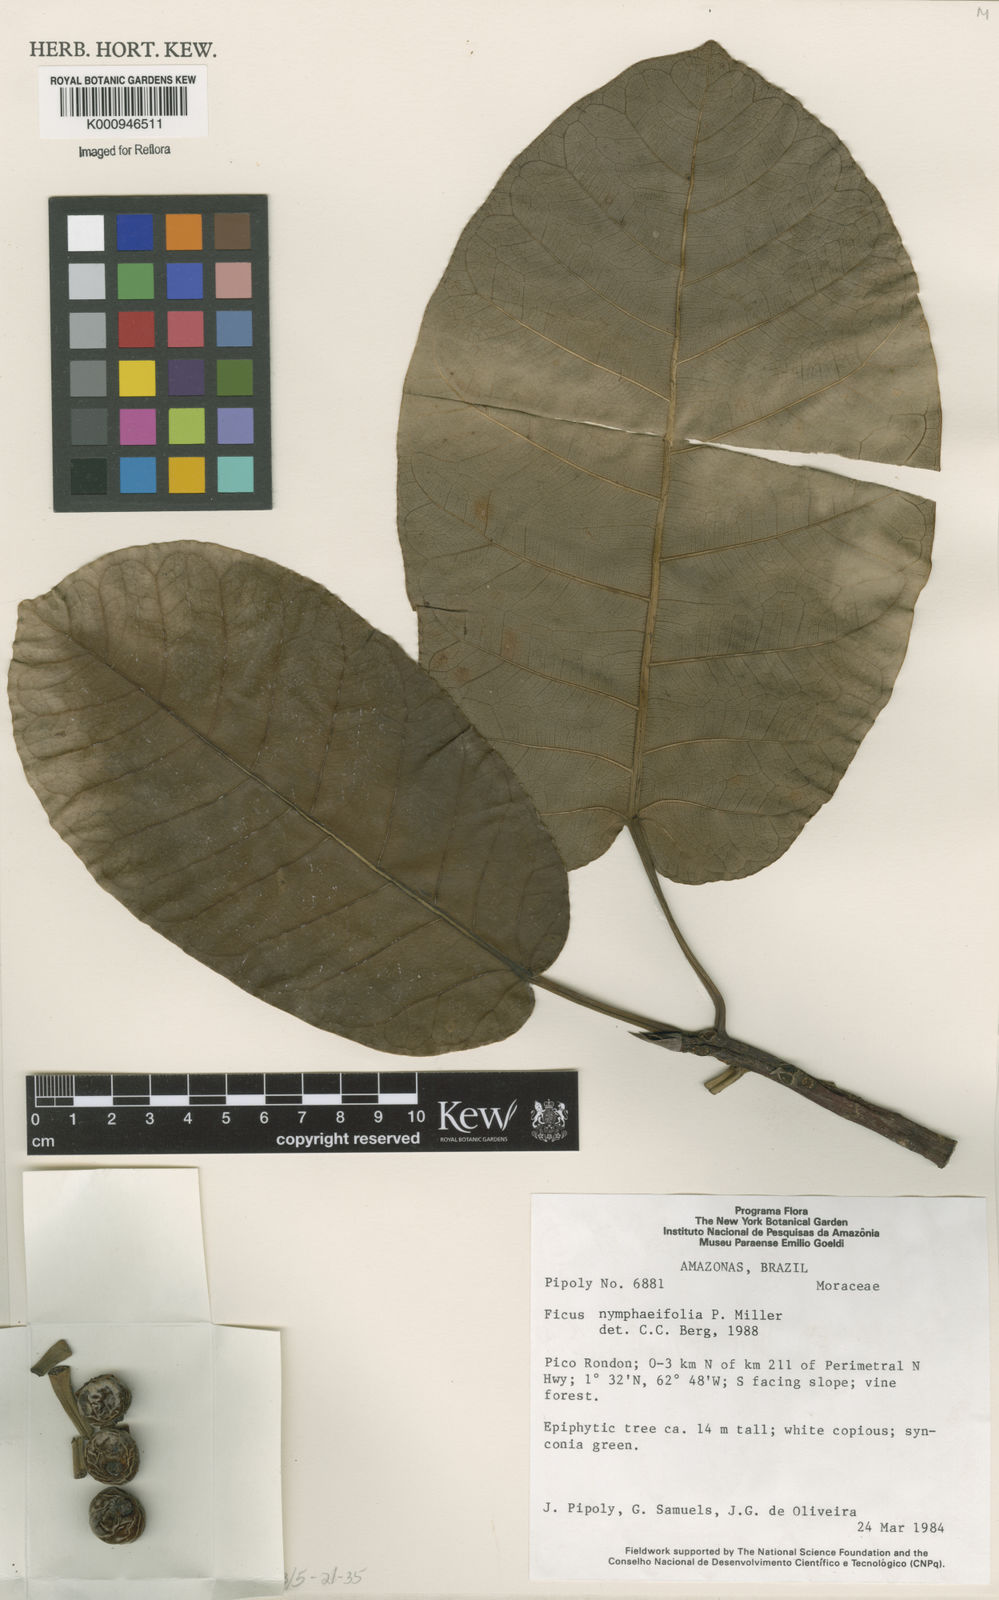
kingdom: Plantae
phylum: Tracheophyta
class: Magnoliopsida
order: Rosales
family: Moraceae
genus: Ficus
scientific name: Ficus nymphaeifolia
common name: Fig
